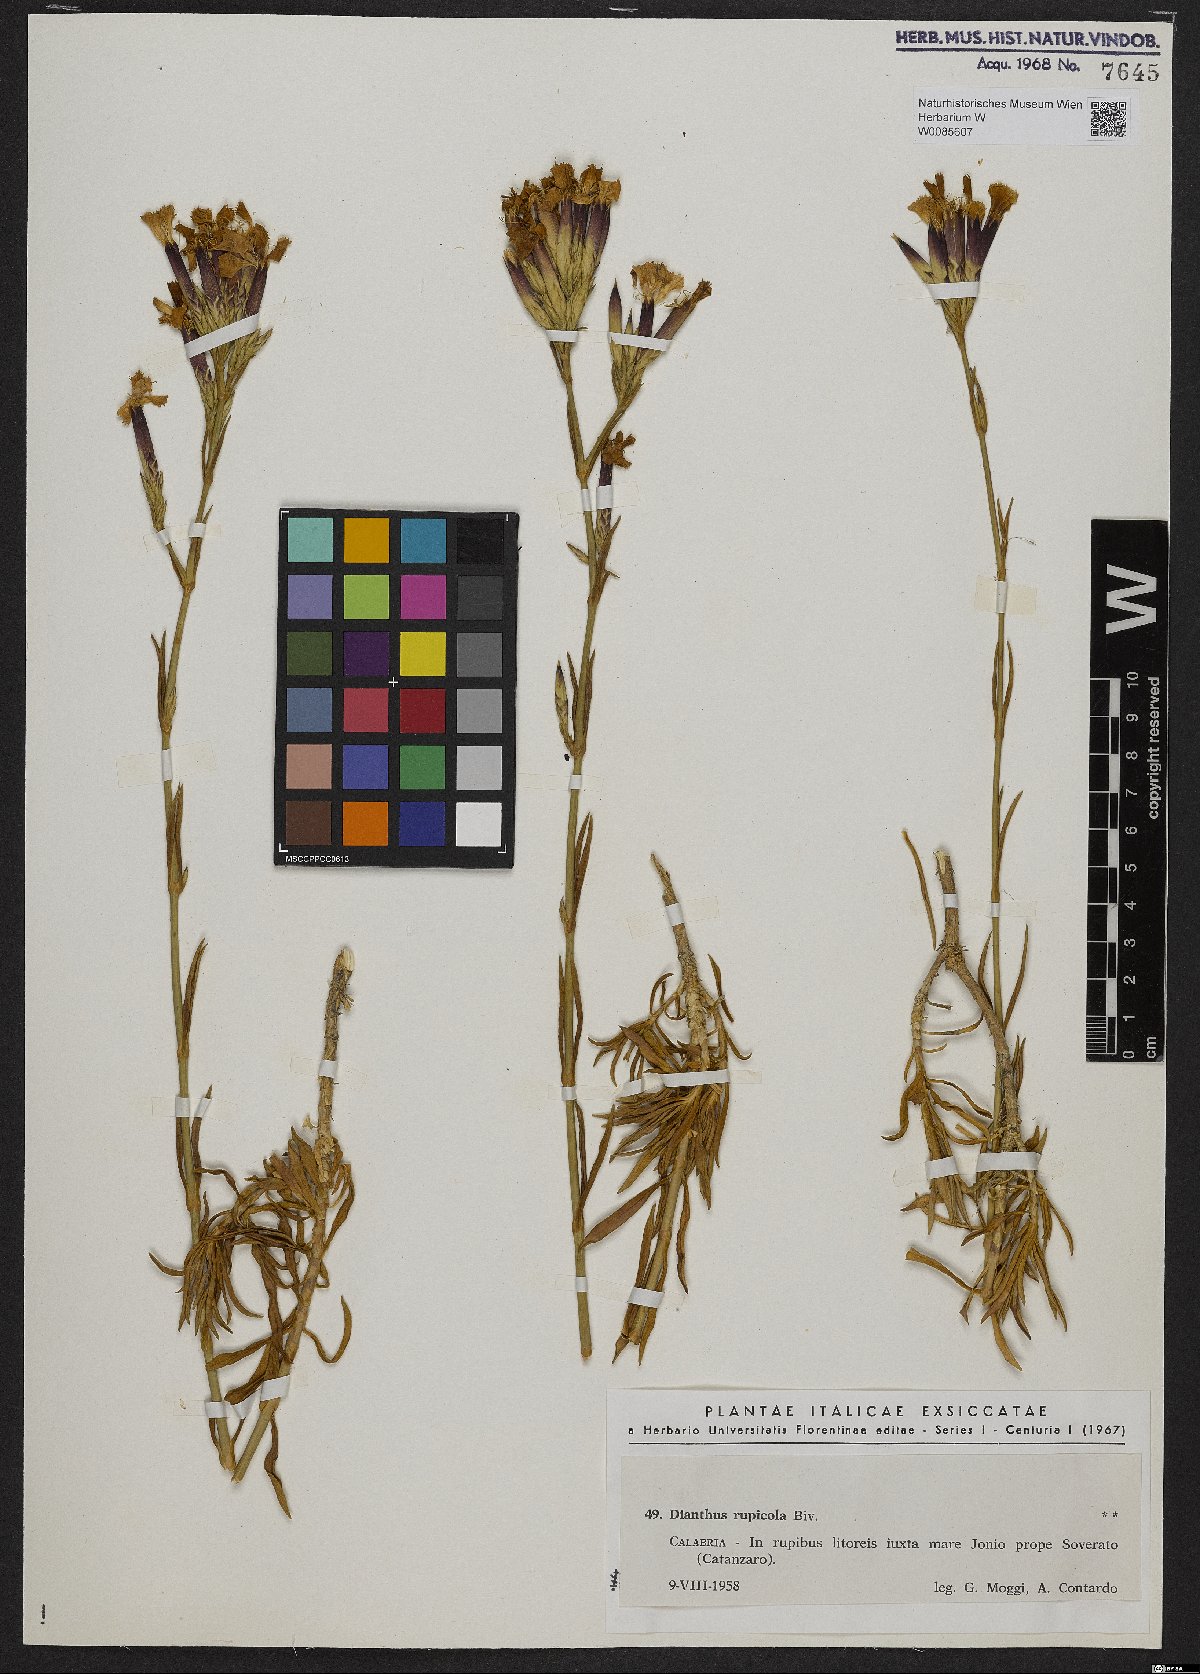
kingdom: Plantae
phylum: Tracheophyta
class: Magnoliopsida
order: Caryophyllales
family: Caryophyllaceae
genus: Dianthus
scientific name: Dianthus rupicola
